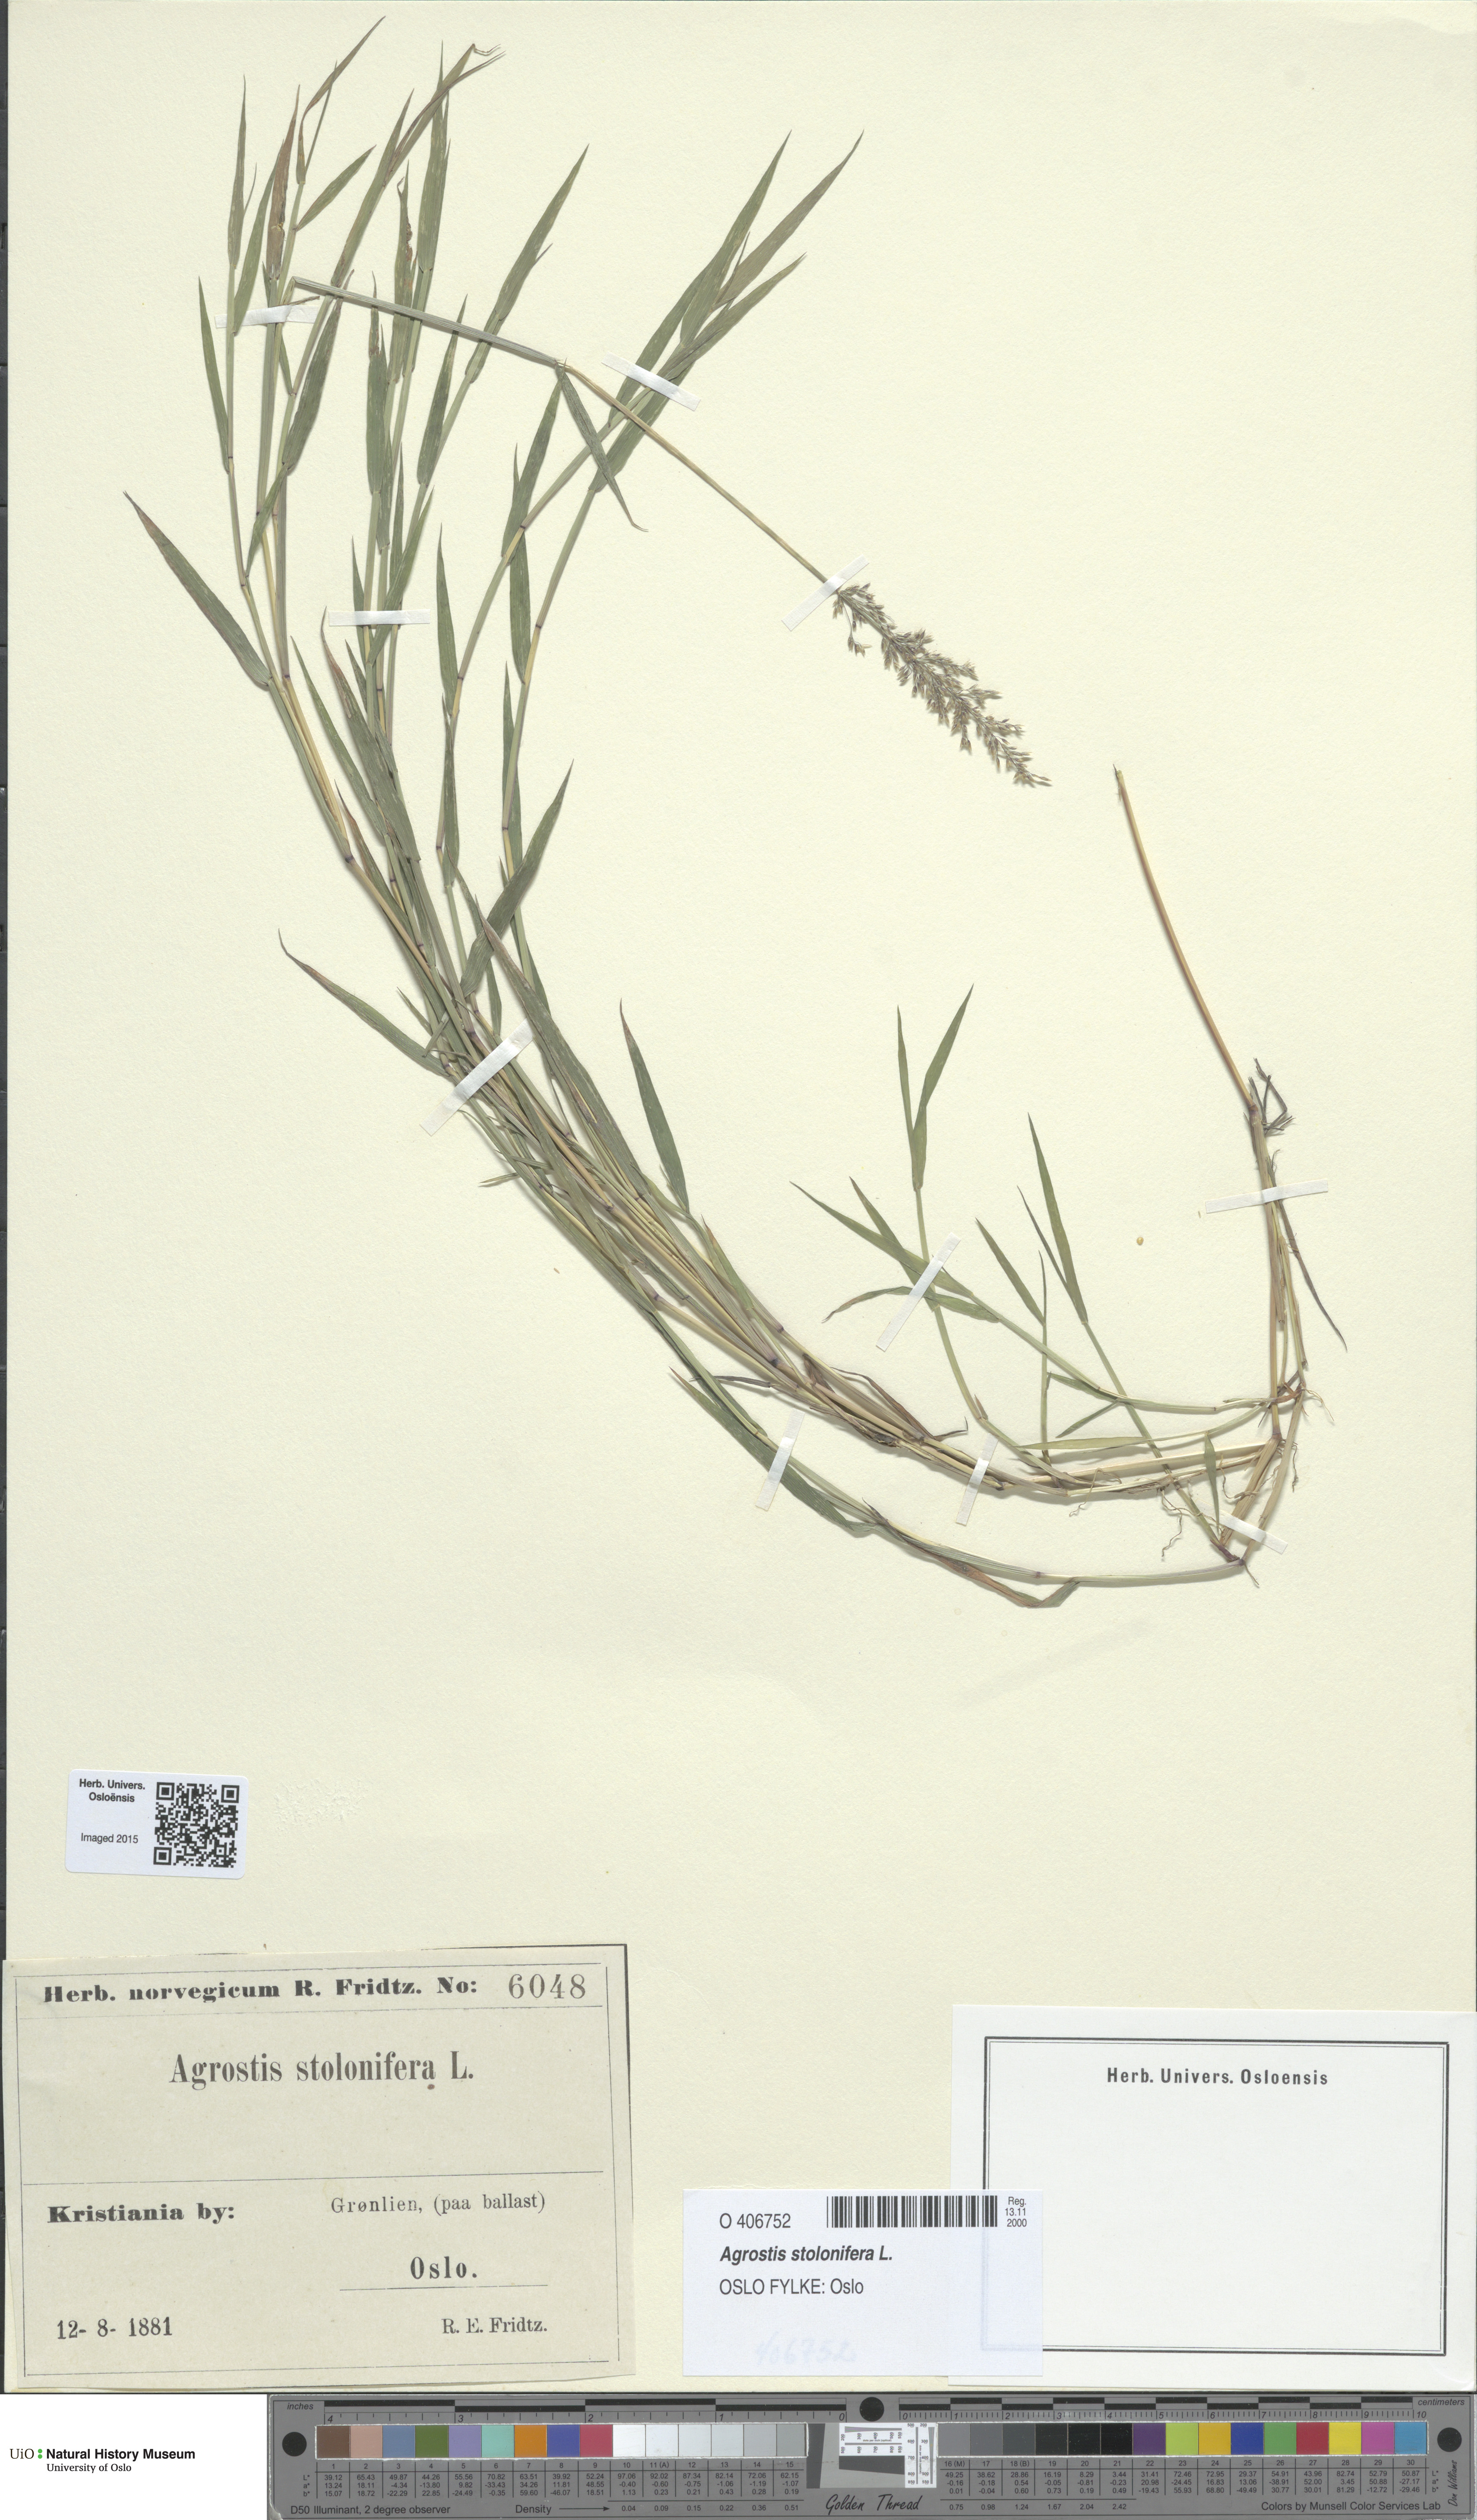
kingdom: Plantae
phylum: Tracheophyta
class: Liliopsida
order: Poales
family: Poaceae
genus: Agrostis
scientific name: Agrostis stolonifera
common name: Creeping bentgrass
